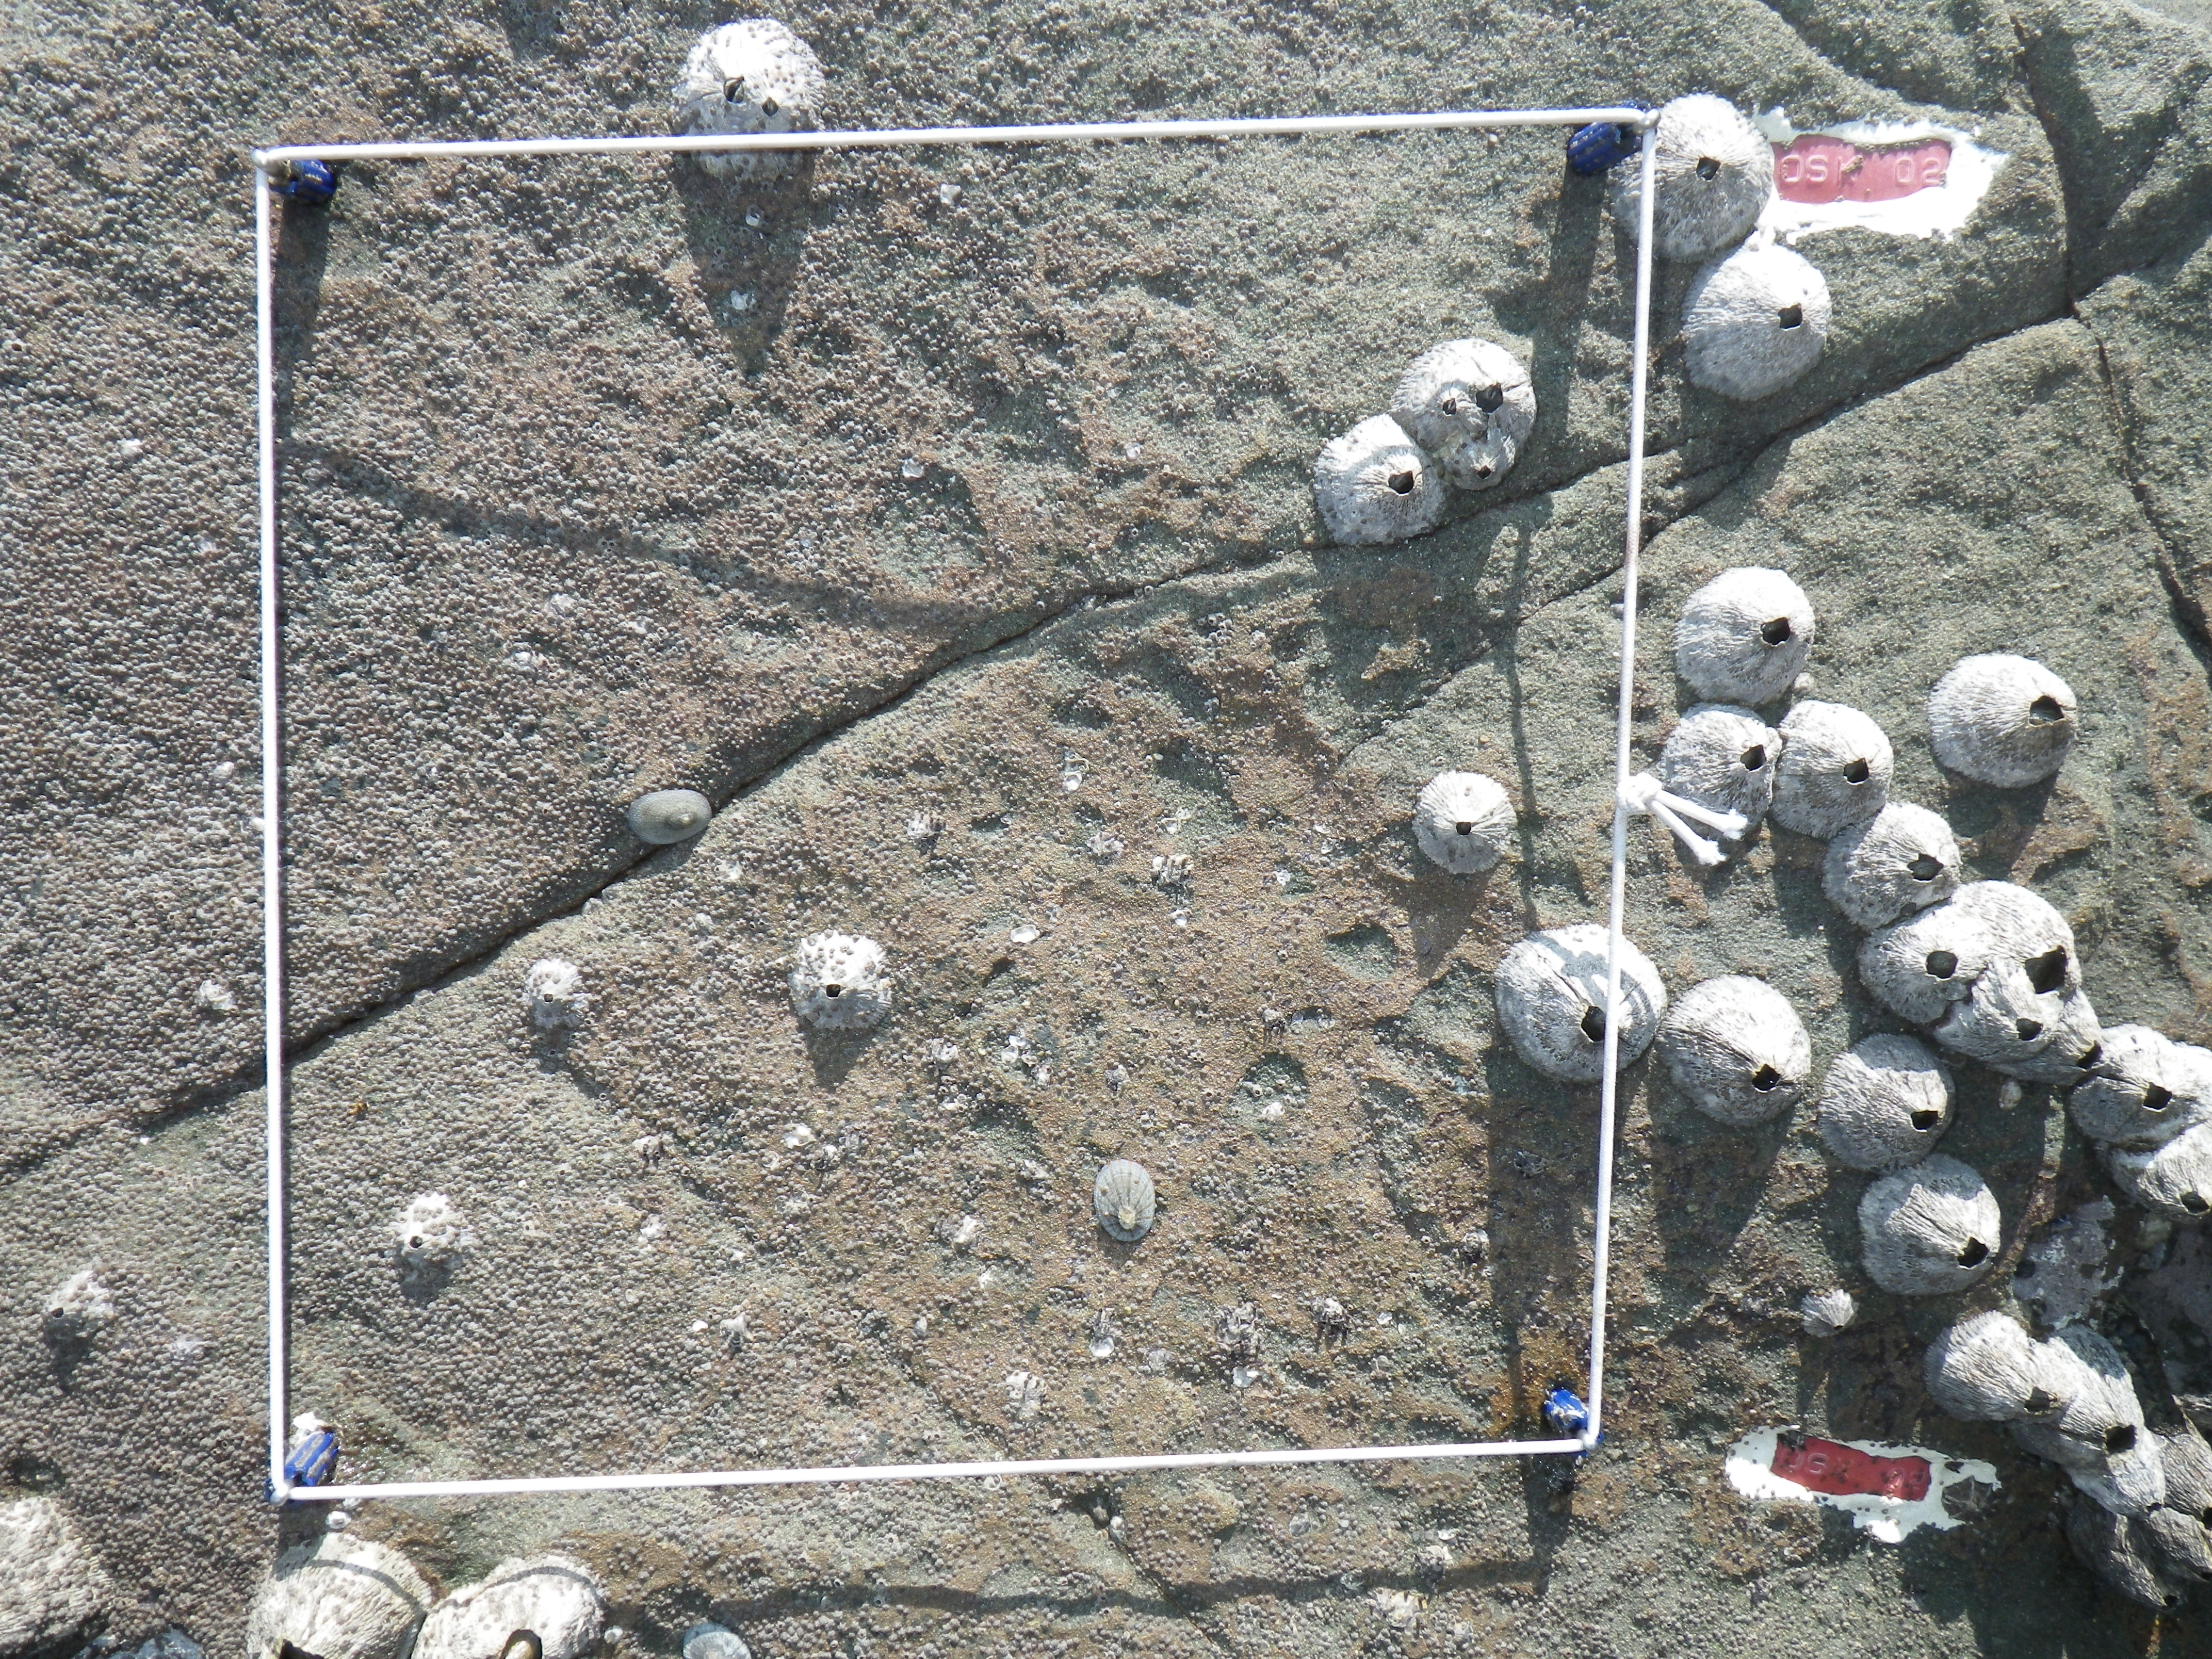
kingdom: Animalia
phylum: Arthropoda
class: Maxillopoda
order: Sessilia
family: Chthamalidae
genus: Chthamalus
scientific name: Chthamalus challengeri
